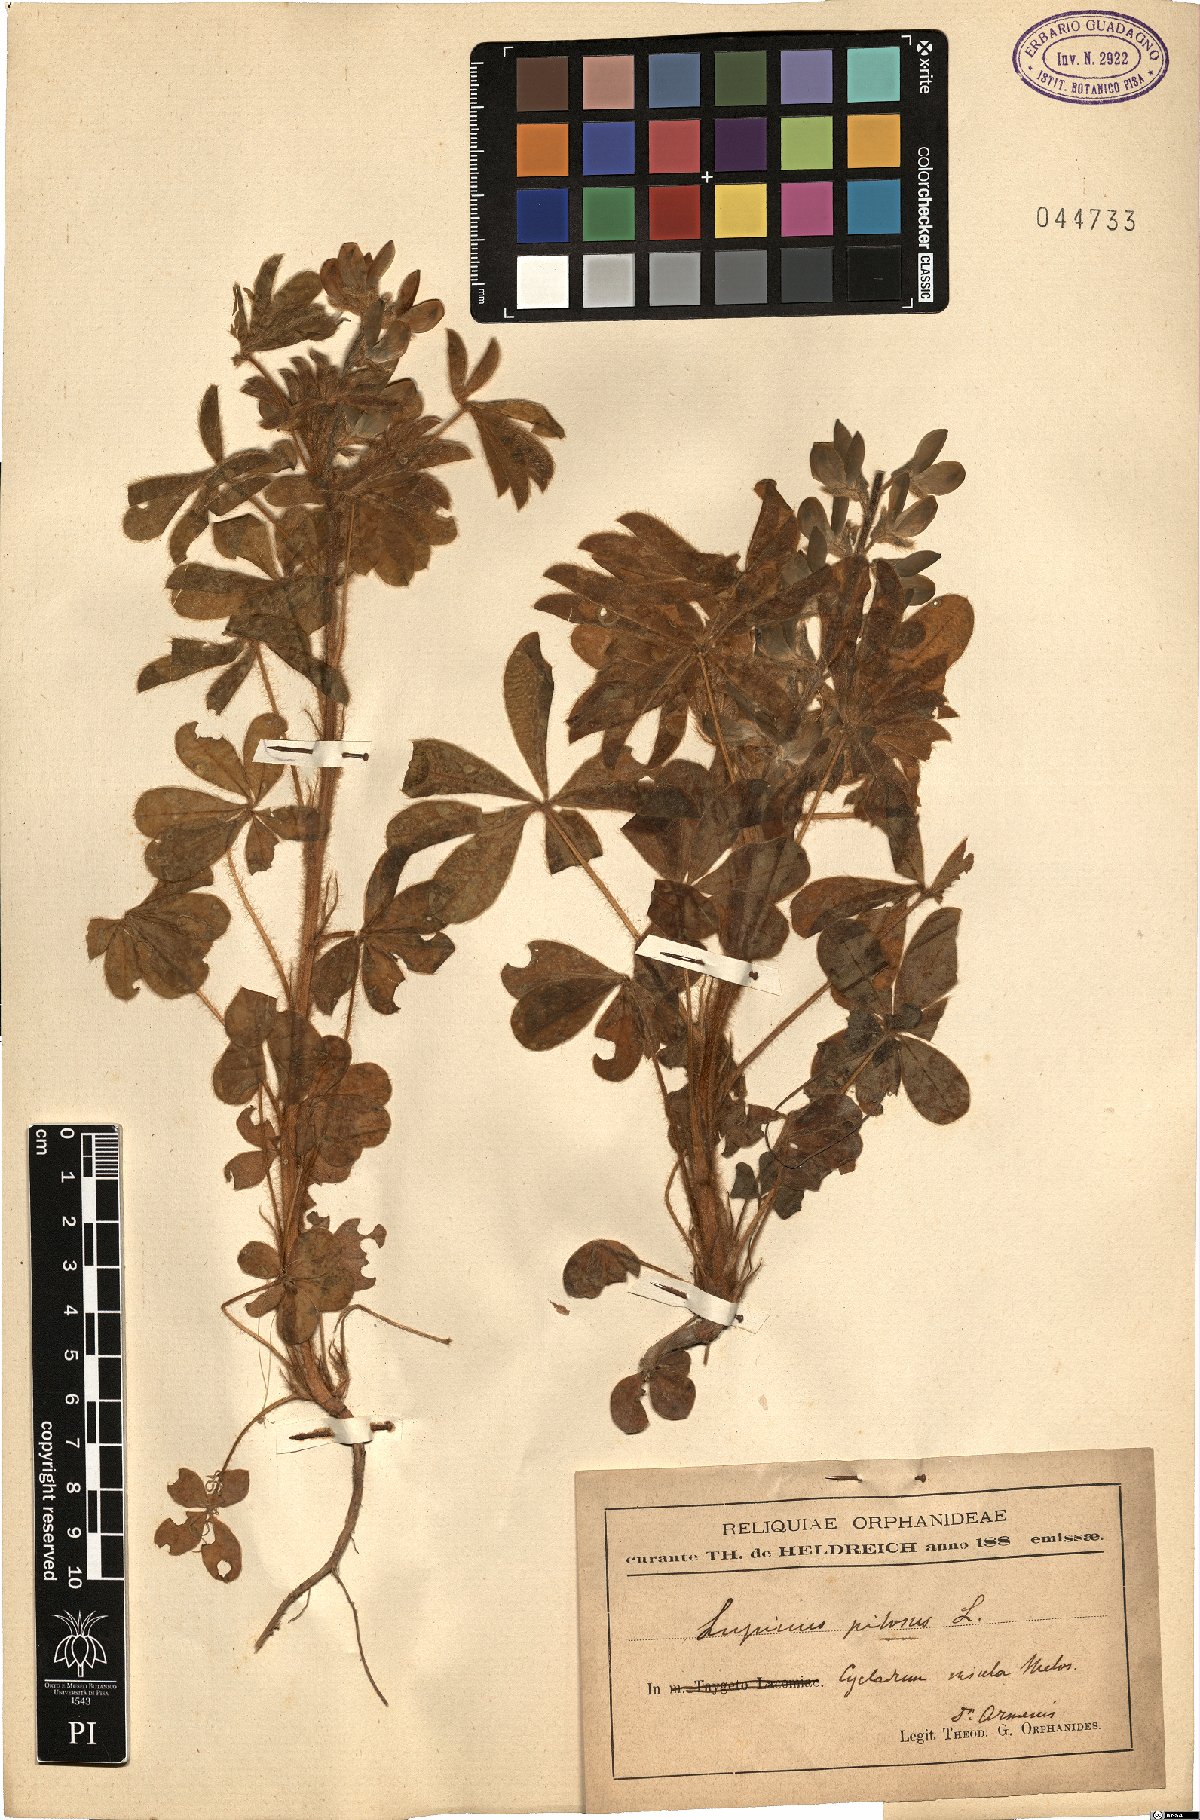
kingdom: Plantae
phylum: Tracheophyta
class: Magnoliopsida
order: Fabales
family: Fabaceae
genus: Lupinus
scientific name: Lupinus pilosus
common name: Blue lupine
